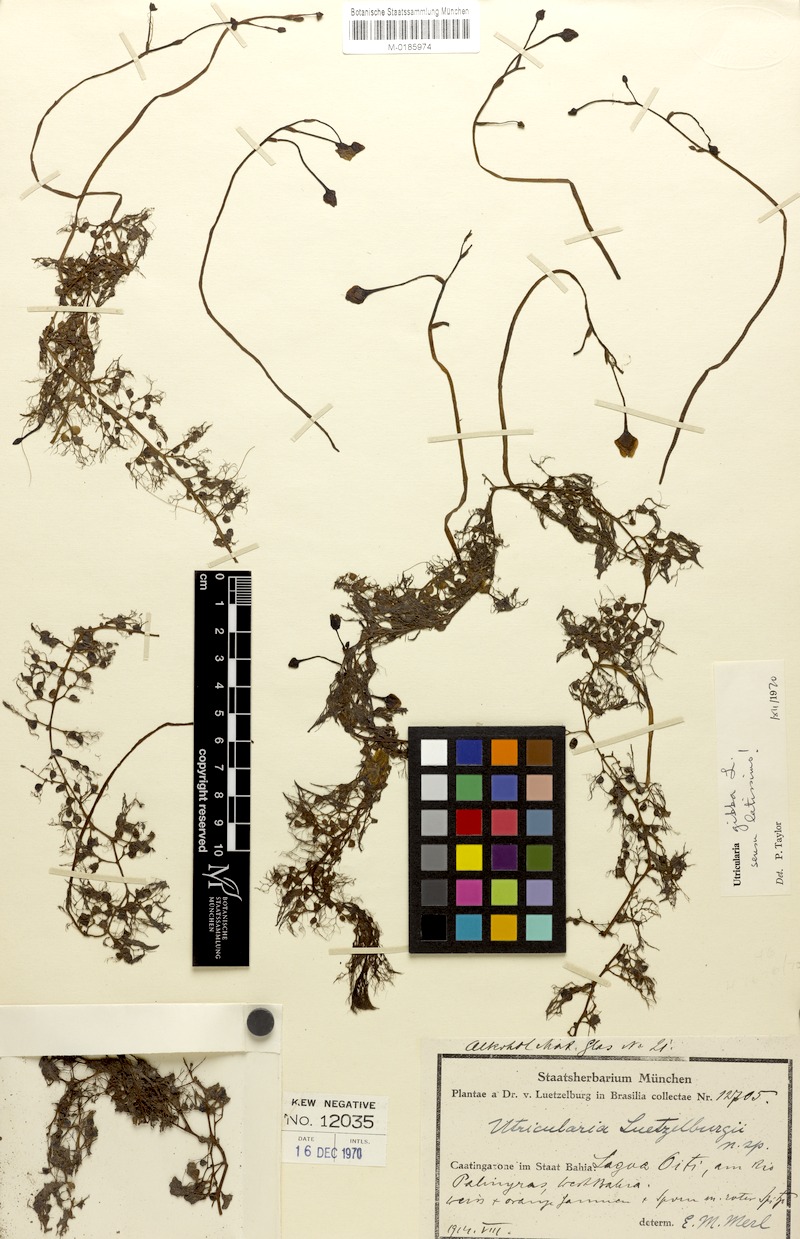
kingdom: Plantae
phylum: Tracheophyta
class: Magnoliopsida
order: Lamiales
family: Lentibulariaceae
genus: Utricularia
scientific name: Utricularia poconensis
